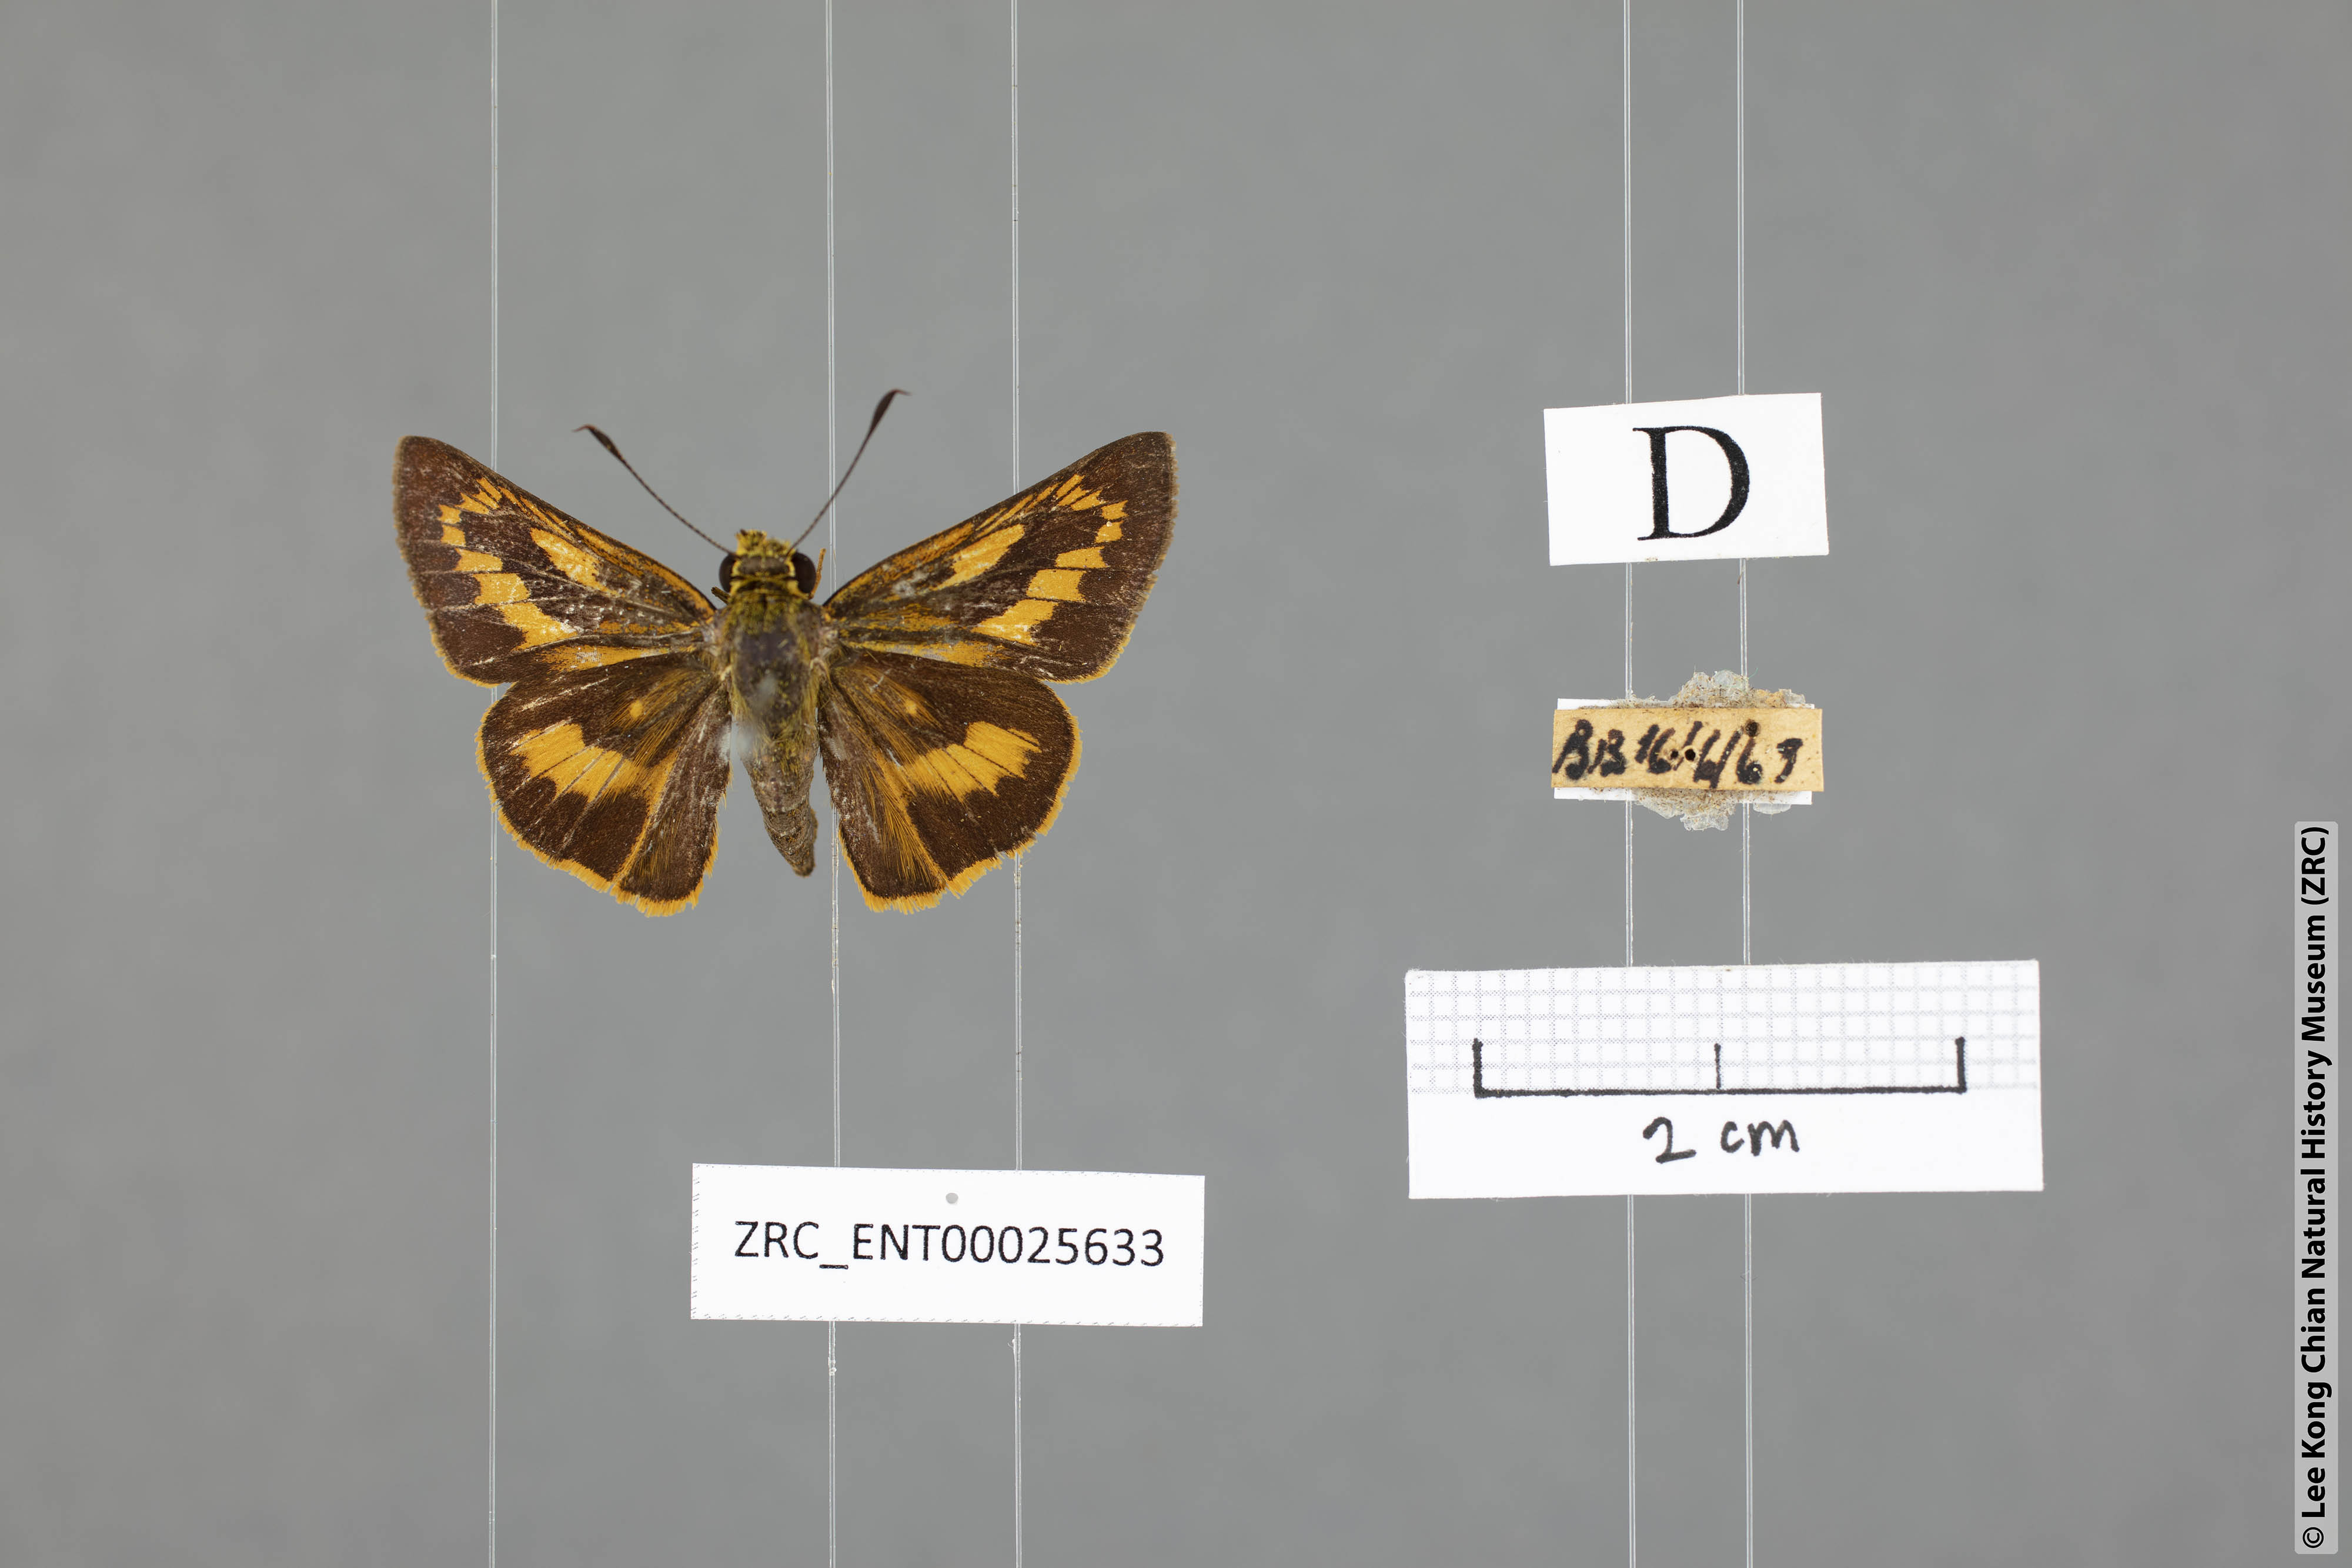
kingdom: Animalia
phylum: Arthropoda
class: Insecta
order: Lepidoptera
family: Hesperiidae
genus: Telicota
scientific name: Telicota augias
